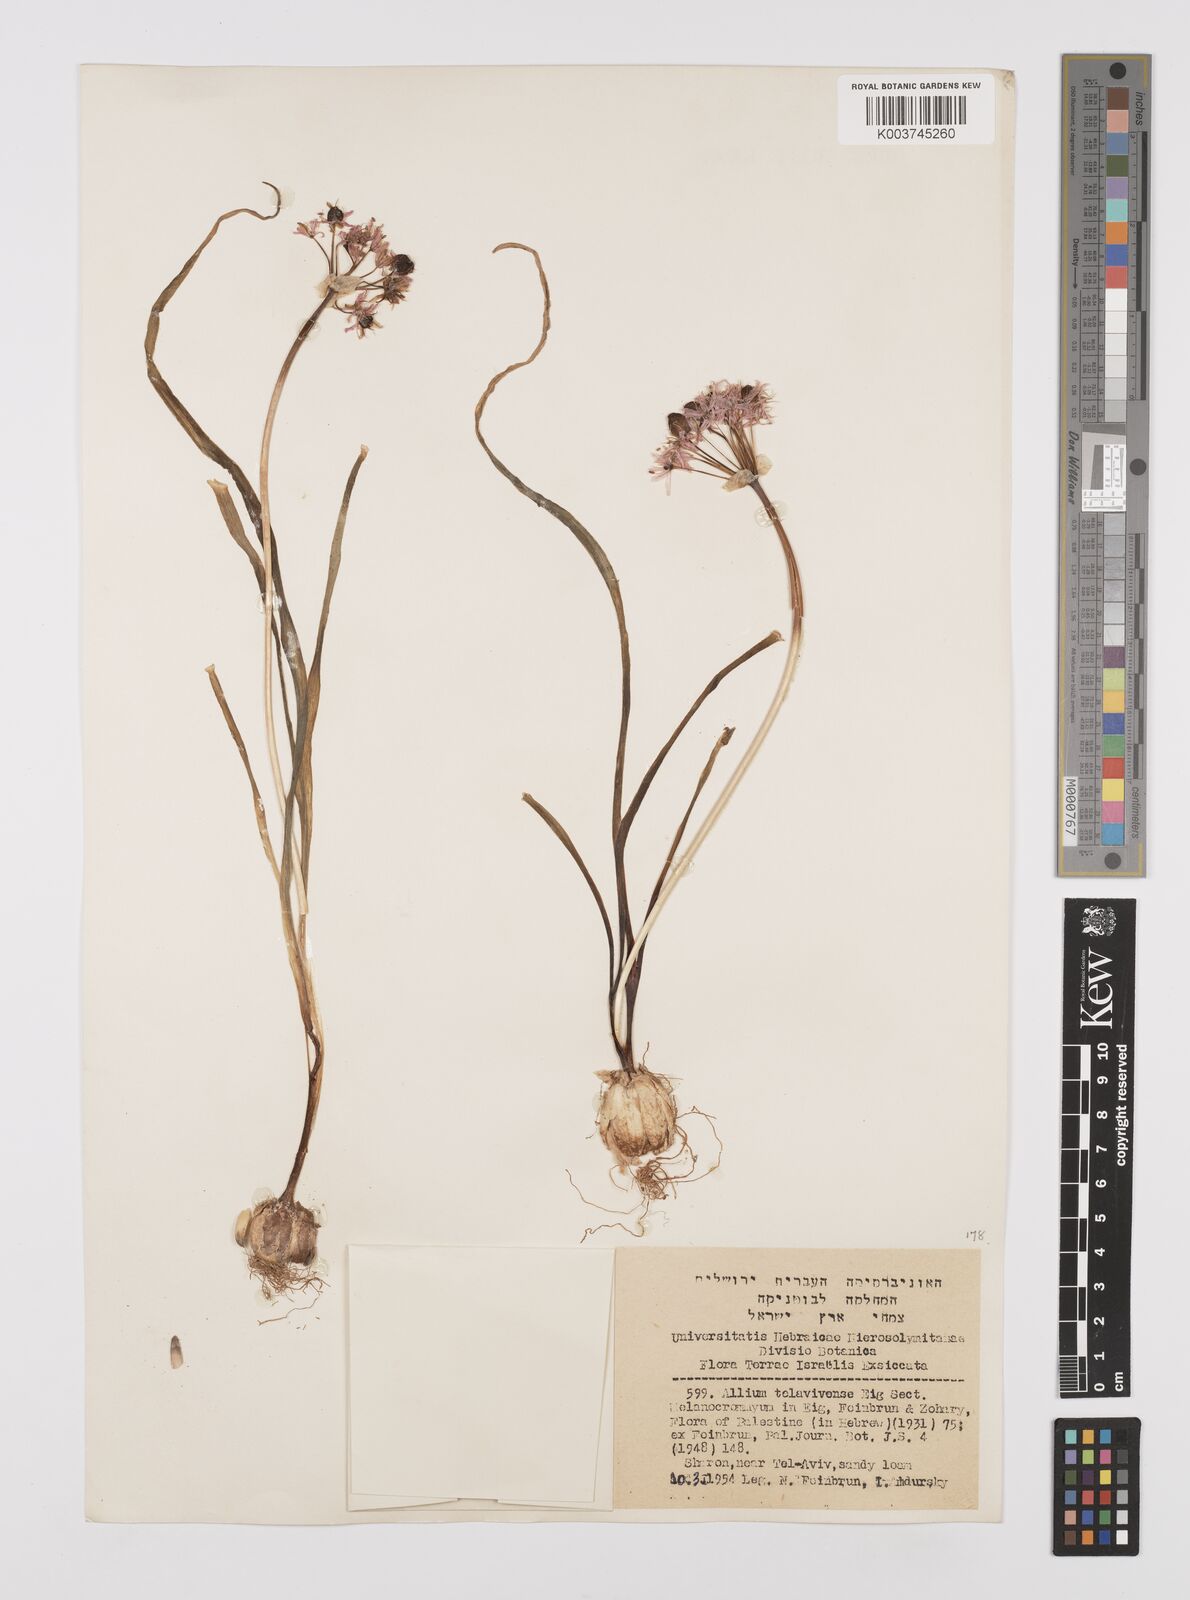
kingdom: Plantae
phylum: Tracheophyta
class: Liliopsida
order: Asparagales
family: Amaryllidaceae
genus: Allium
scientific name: Allium tel-avivense
